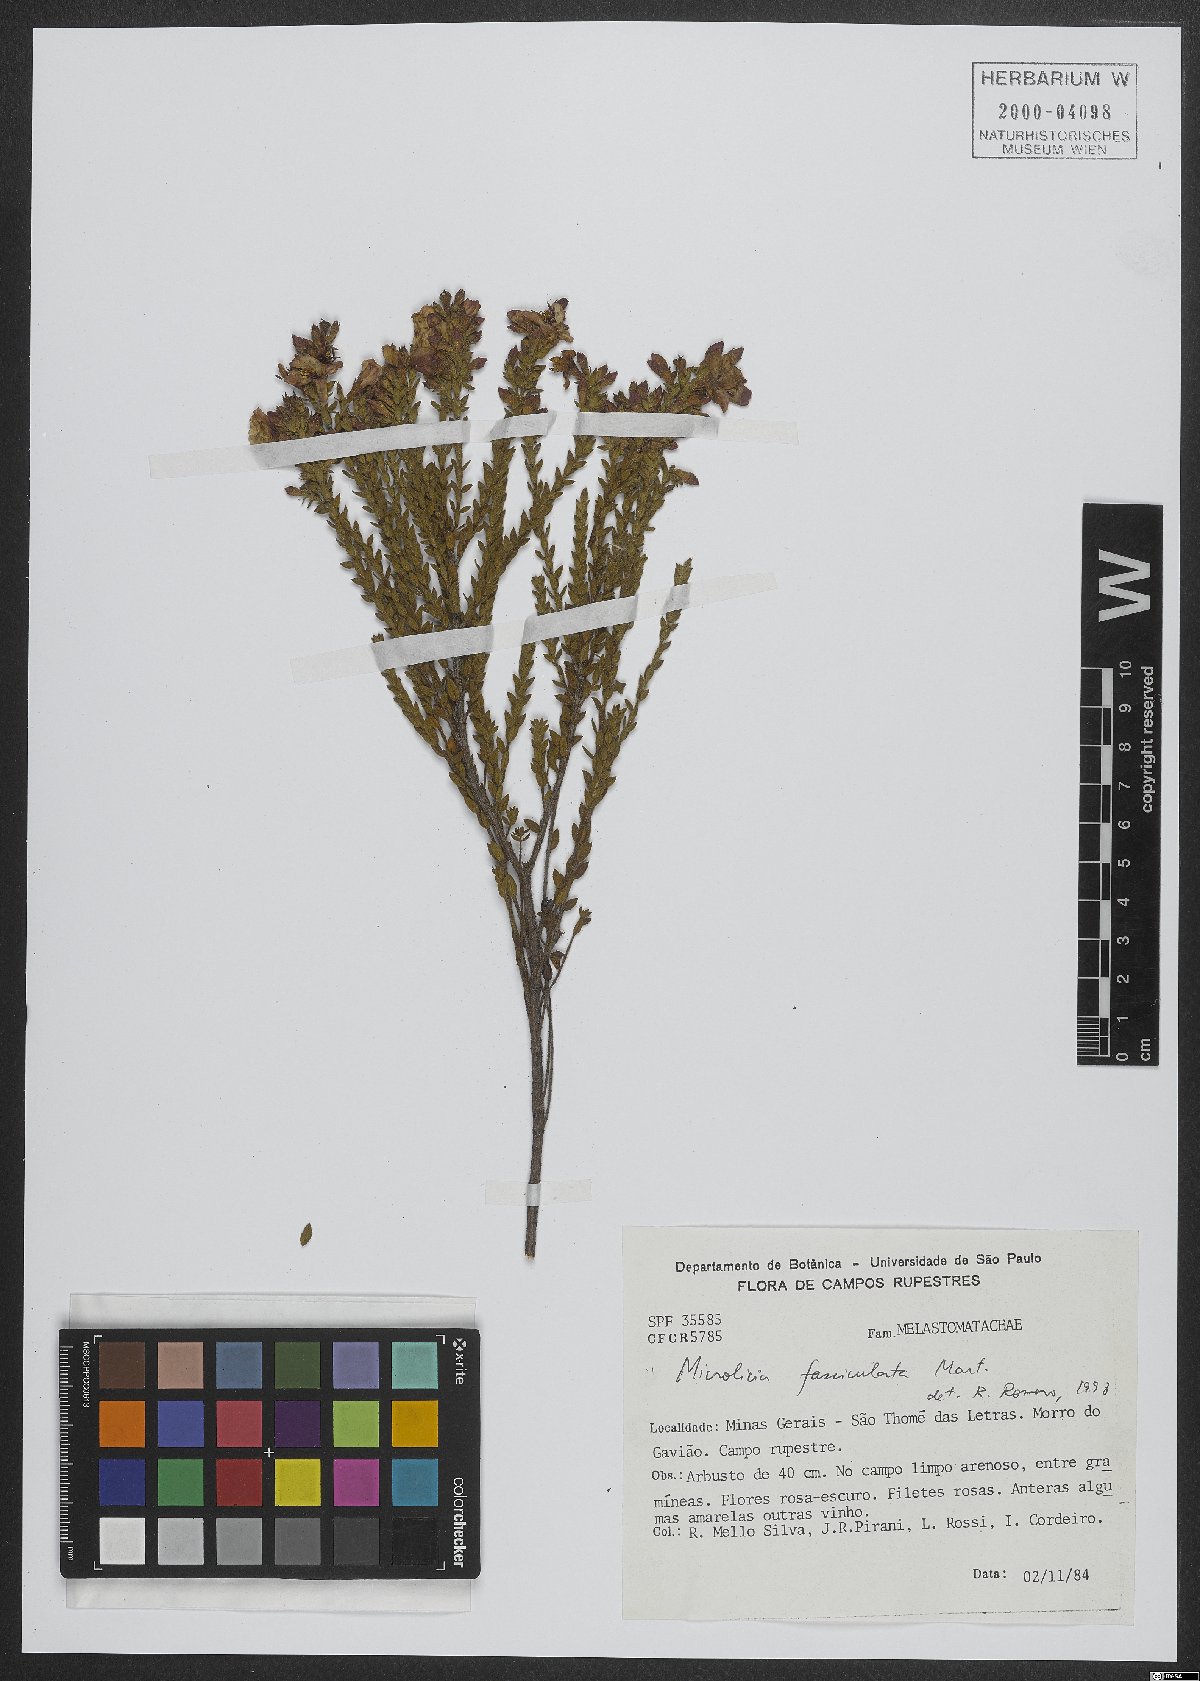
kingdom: Plantae
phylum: Tracheophyta
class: Magnoliopsida
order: Myrtales
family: Melastomataceae
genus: Microlicia
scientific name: Microlicia fasciculata
